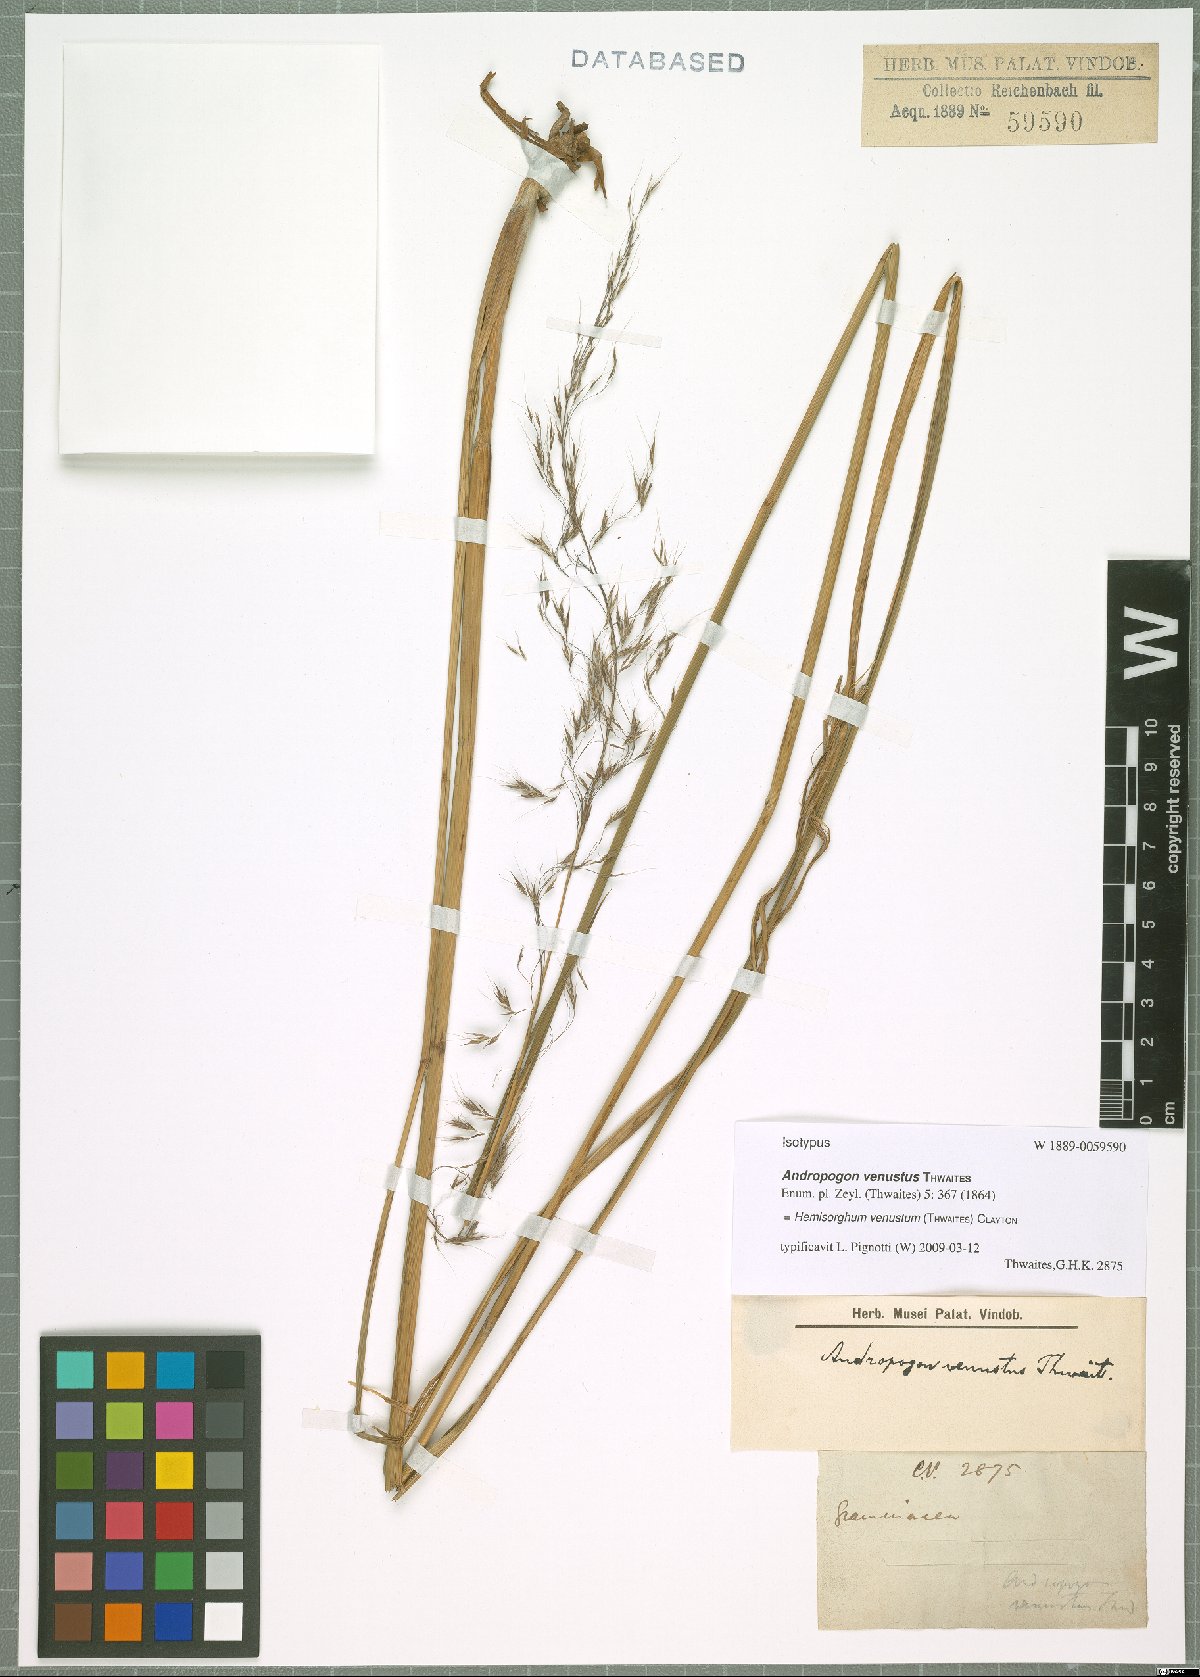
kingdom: Plantae
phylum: Tracheophyta
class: Liliopsida
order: Poales
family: Poaceae
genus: Hemisorghum
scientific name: Hemisorghum venustum
